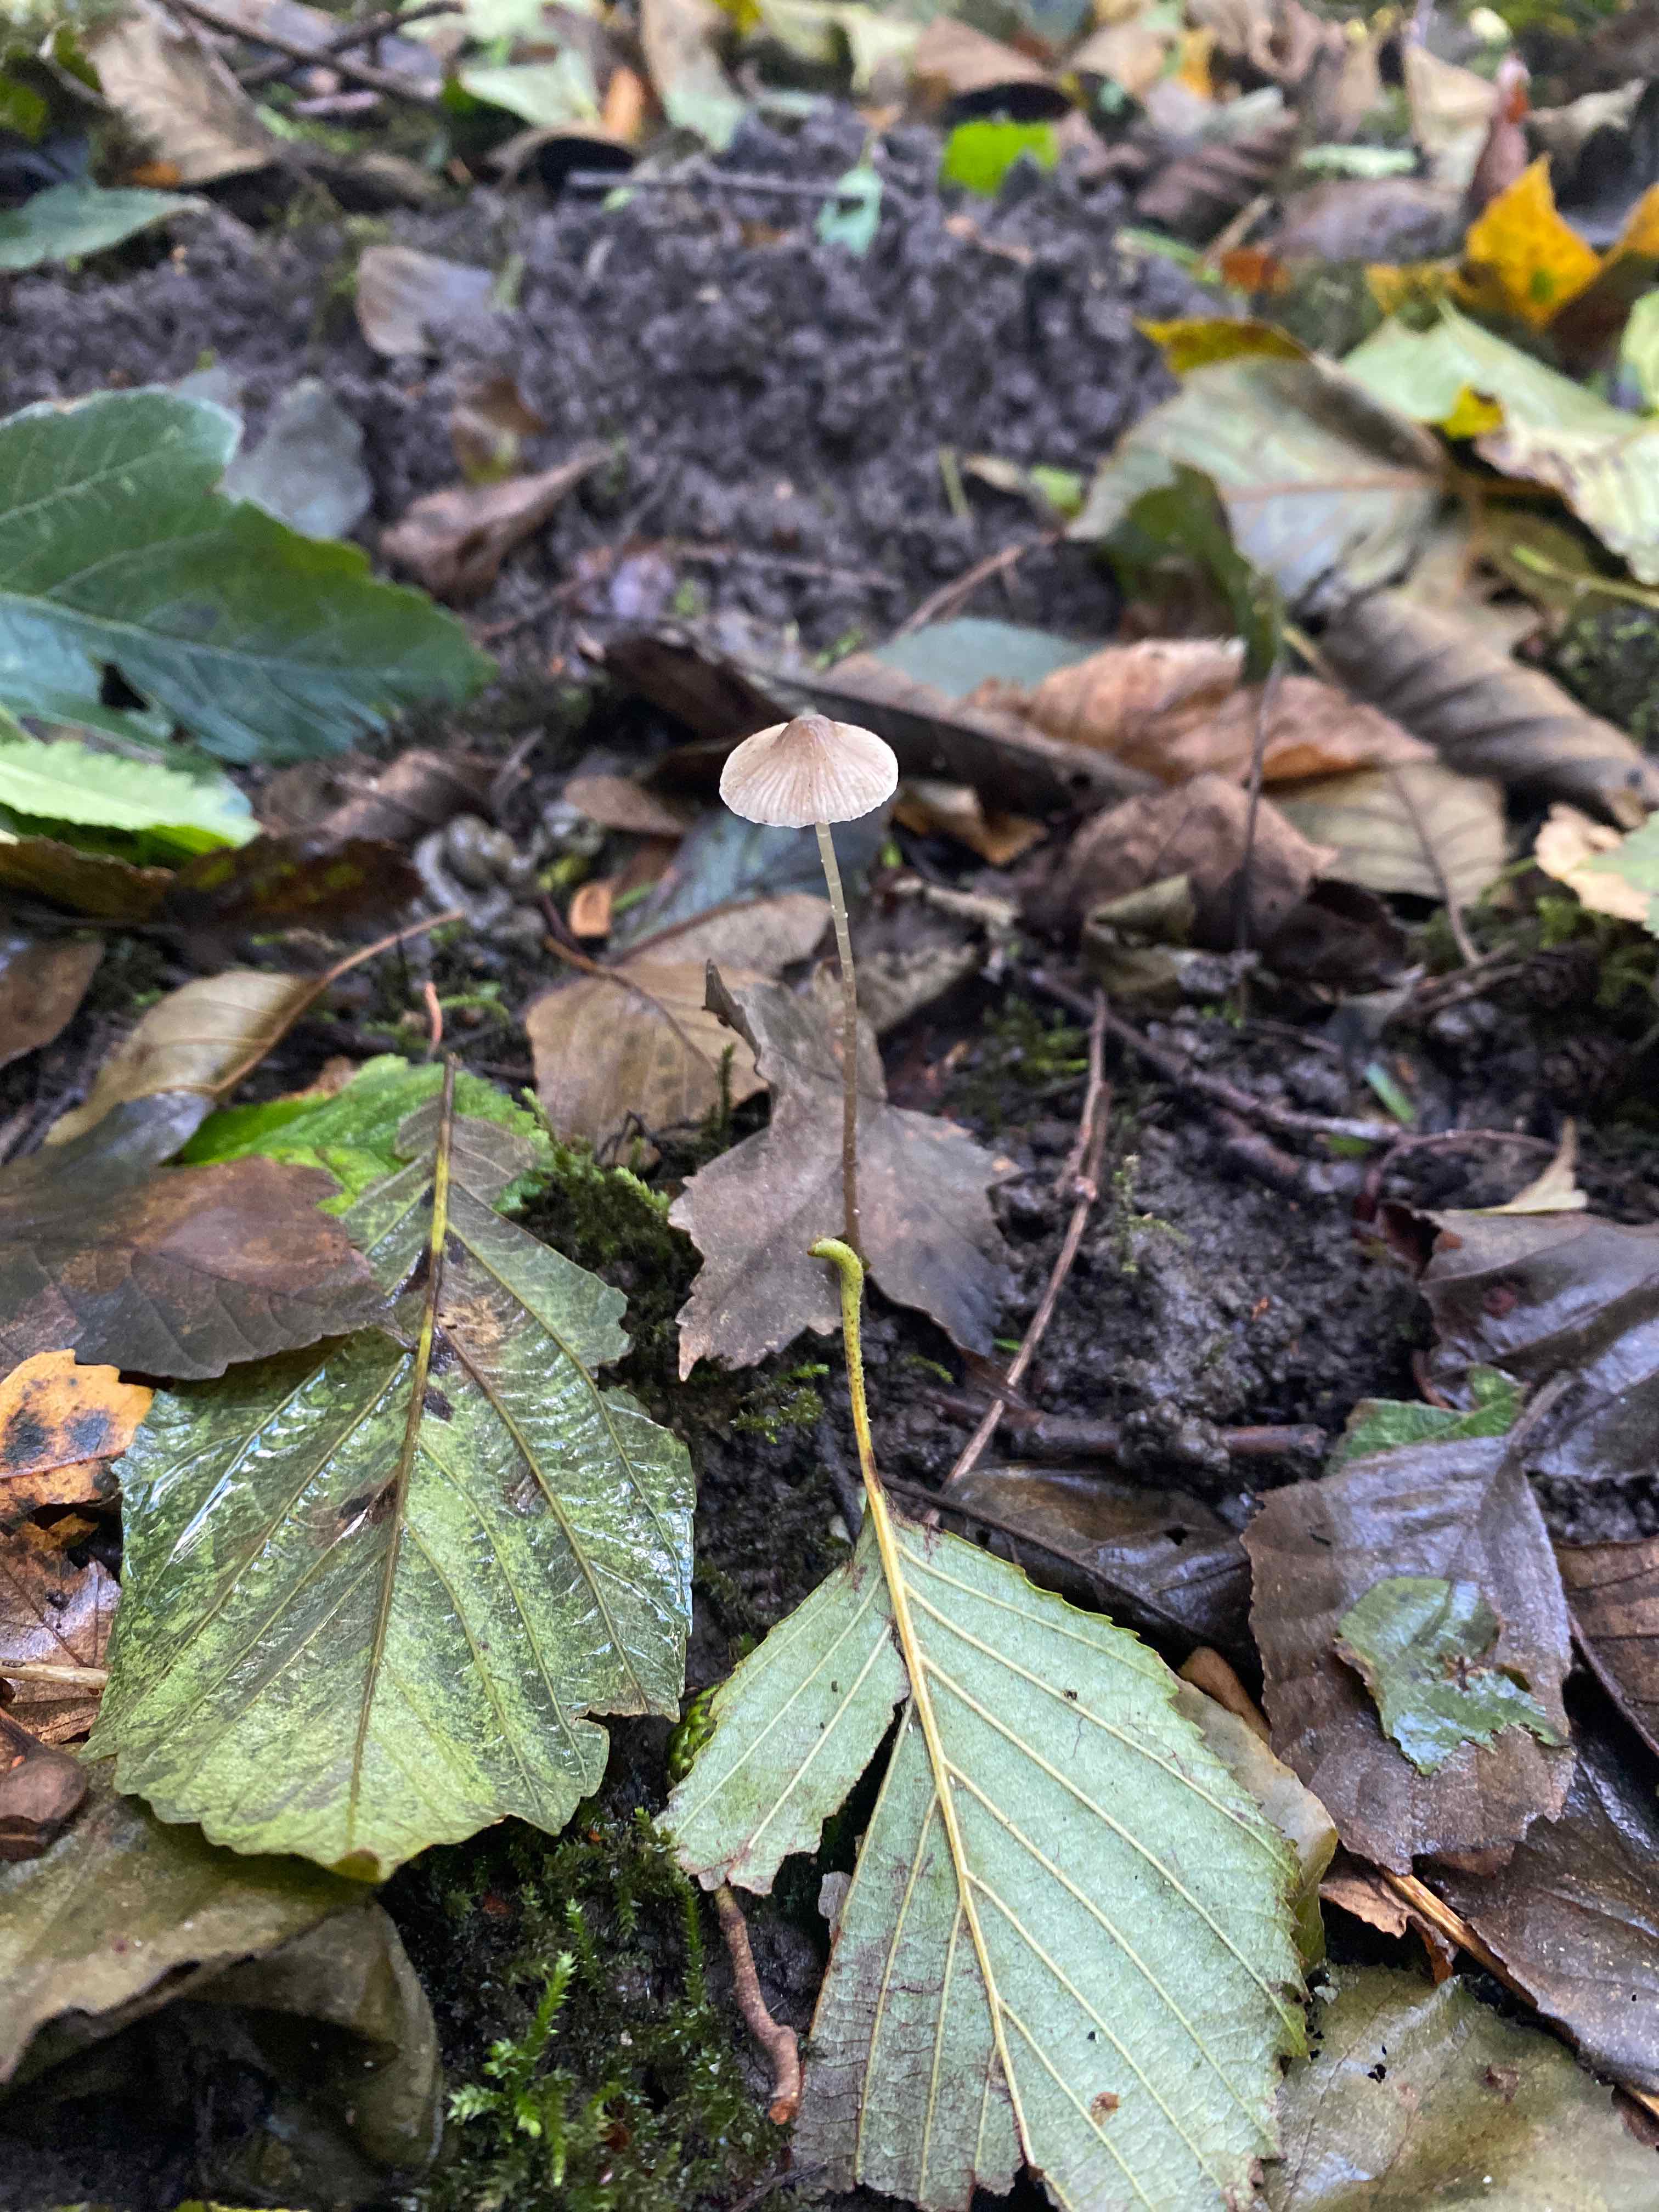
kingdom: Fungi
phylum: Basidiomycota
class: Agaricomycetes
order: Agaricales
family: Mycenaceae
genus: Mycena
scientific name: Mycena galericulata
